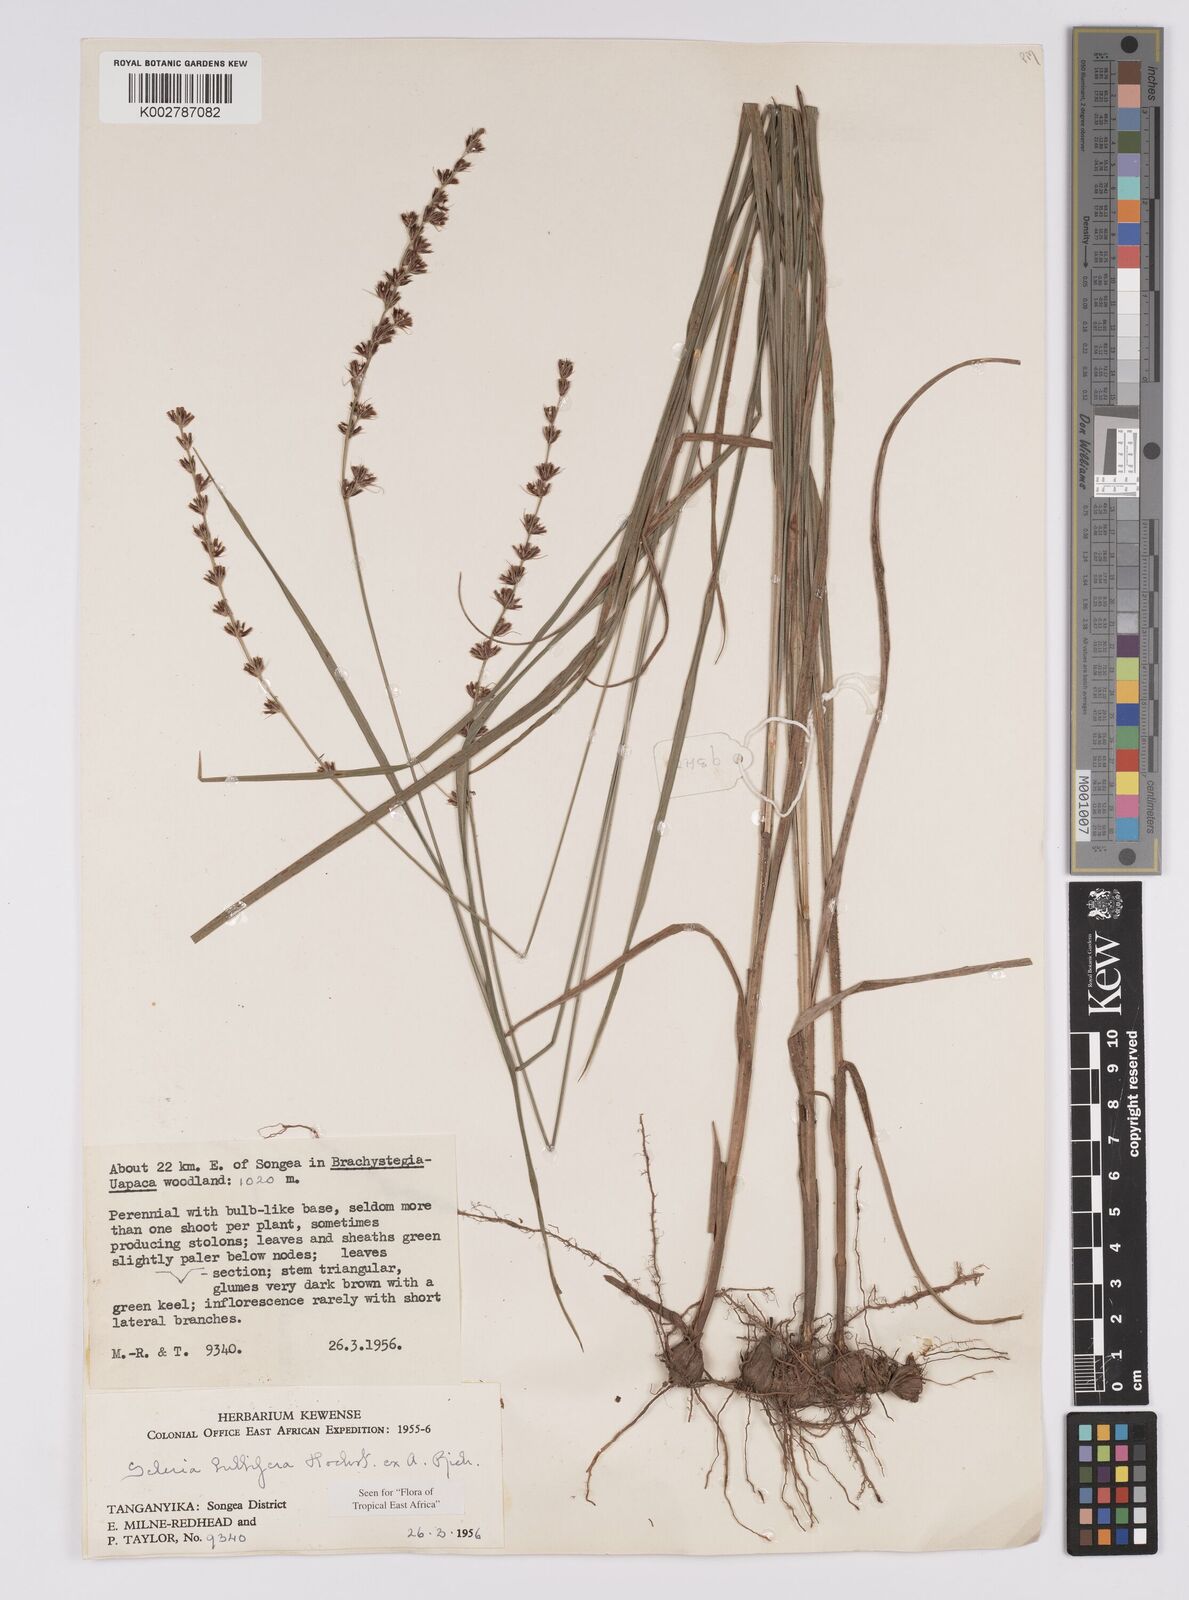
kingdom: Plantae
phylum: Tracheophyta
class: Liliopsida
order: Poales
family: Cyperaceae
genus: Scleria
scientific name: Scleria bulbifera
